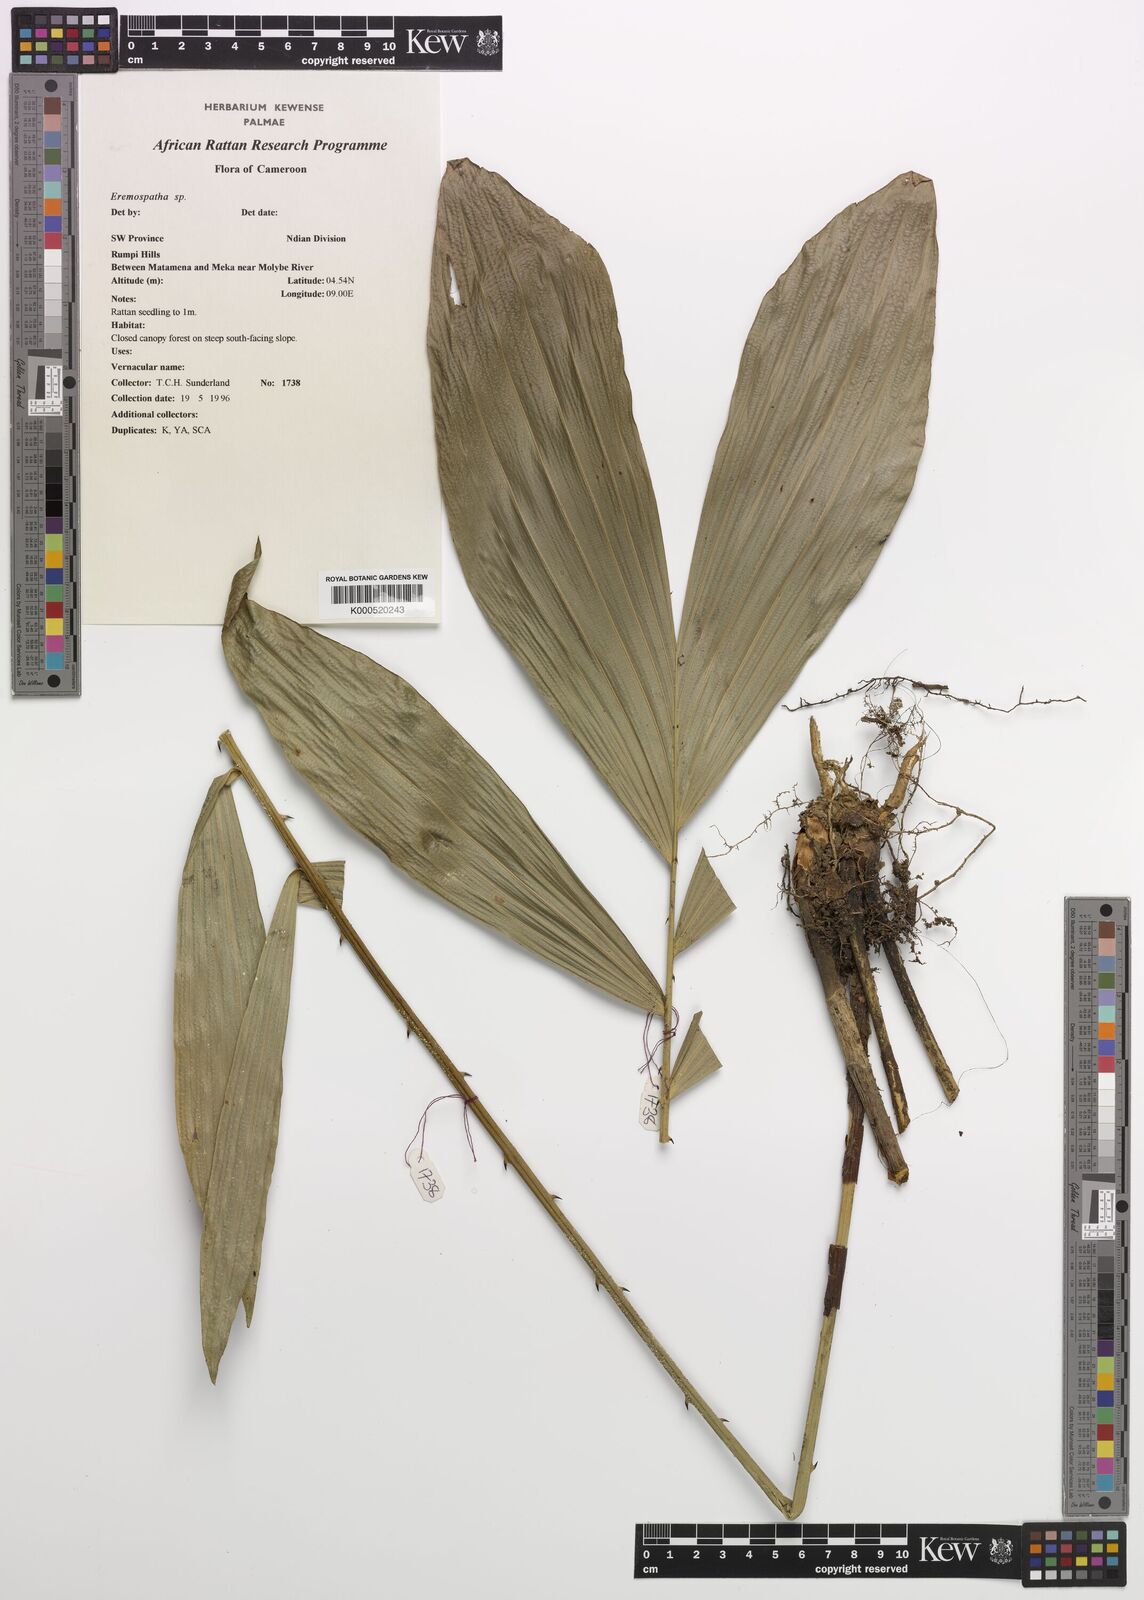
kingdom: Plantae
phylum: Tracheophyta
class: Liliopsida
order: Arecales
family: Arecaceae
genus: Eremospatha
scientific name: Eremospatha
